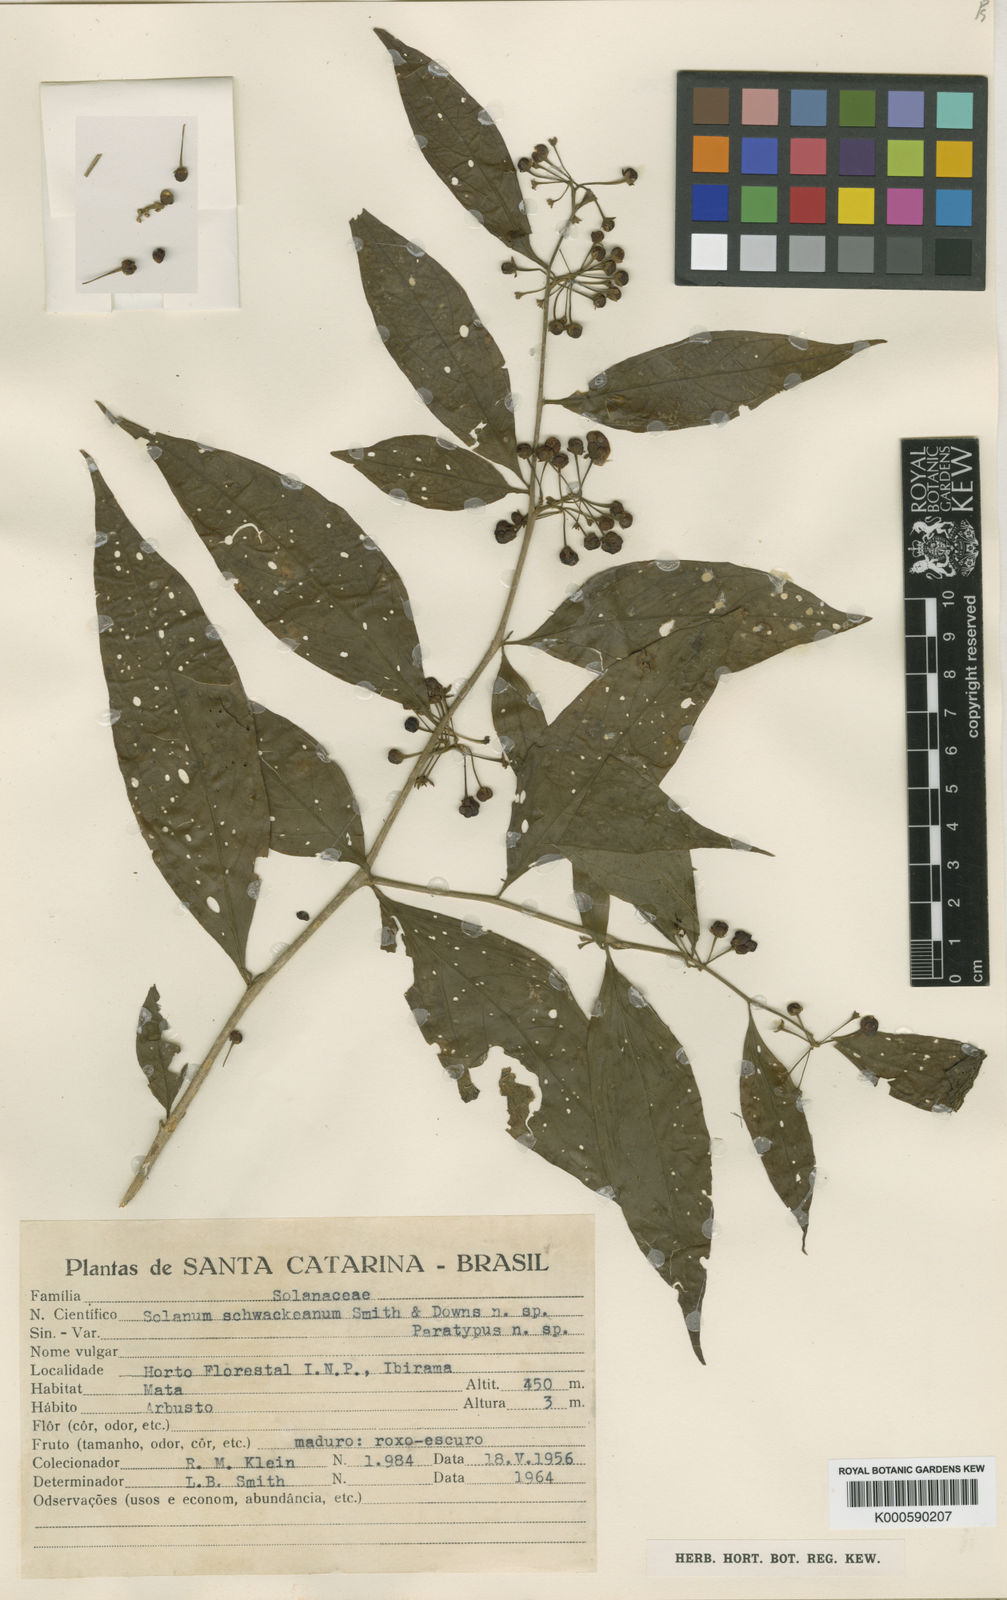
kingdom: Plantae
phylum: Tracheophyta
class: Magnoliopsida
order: Solanales
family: Solanaceae
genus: Solanum
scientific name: Solanum schwackeanum
